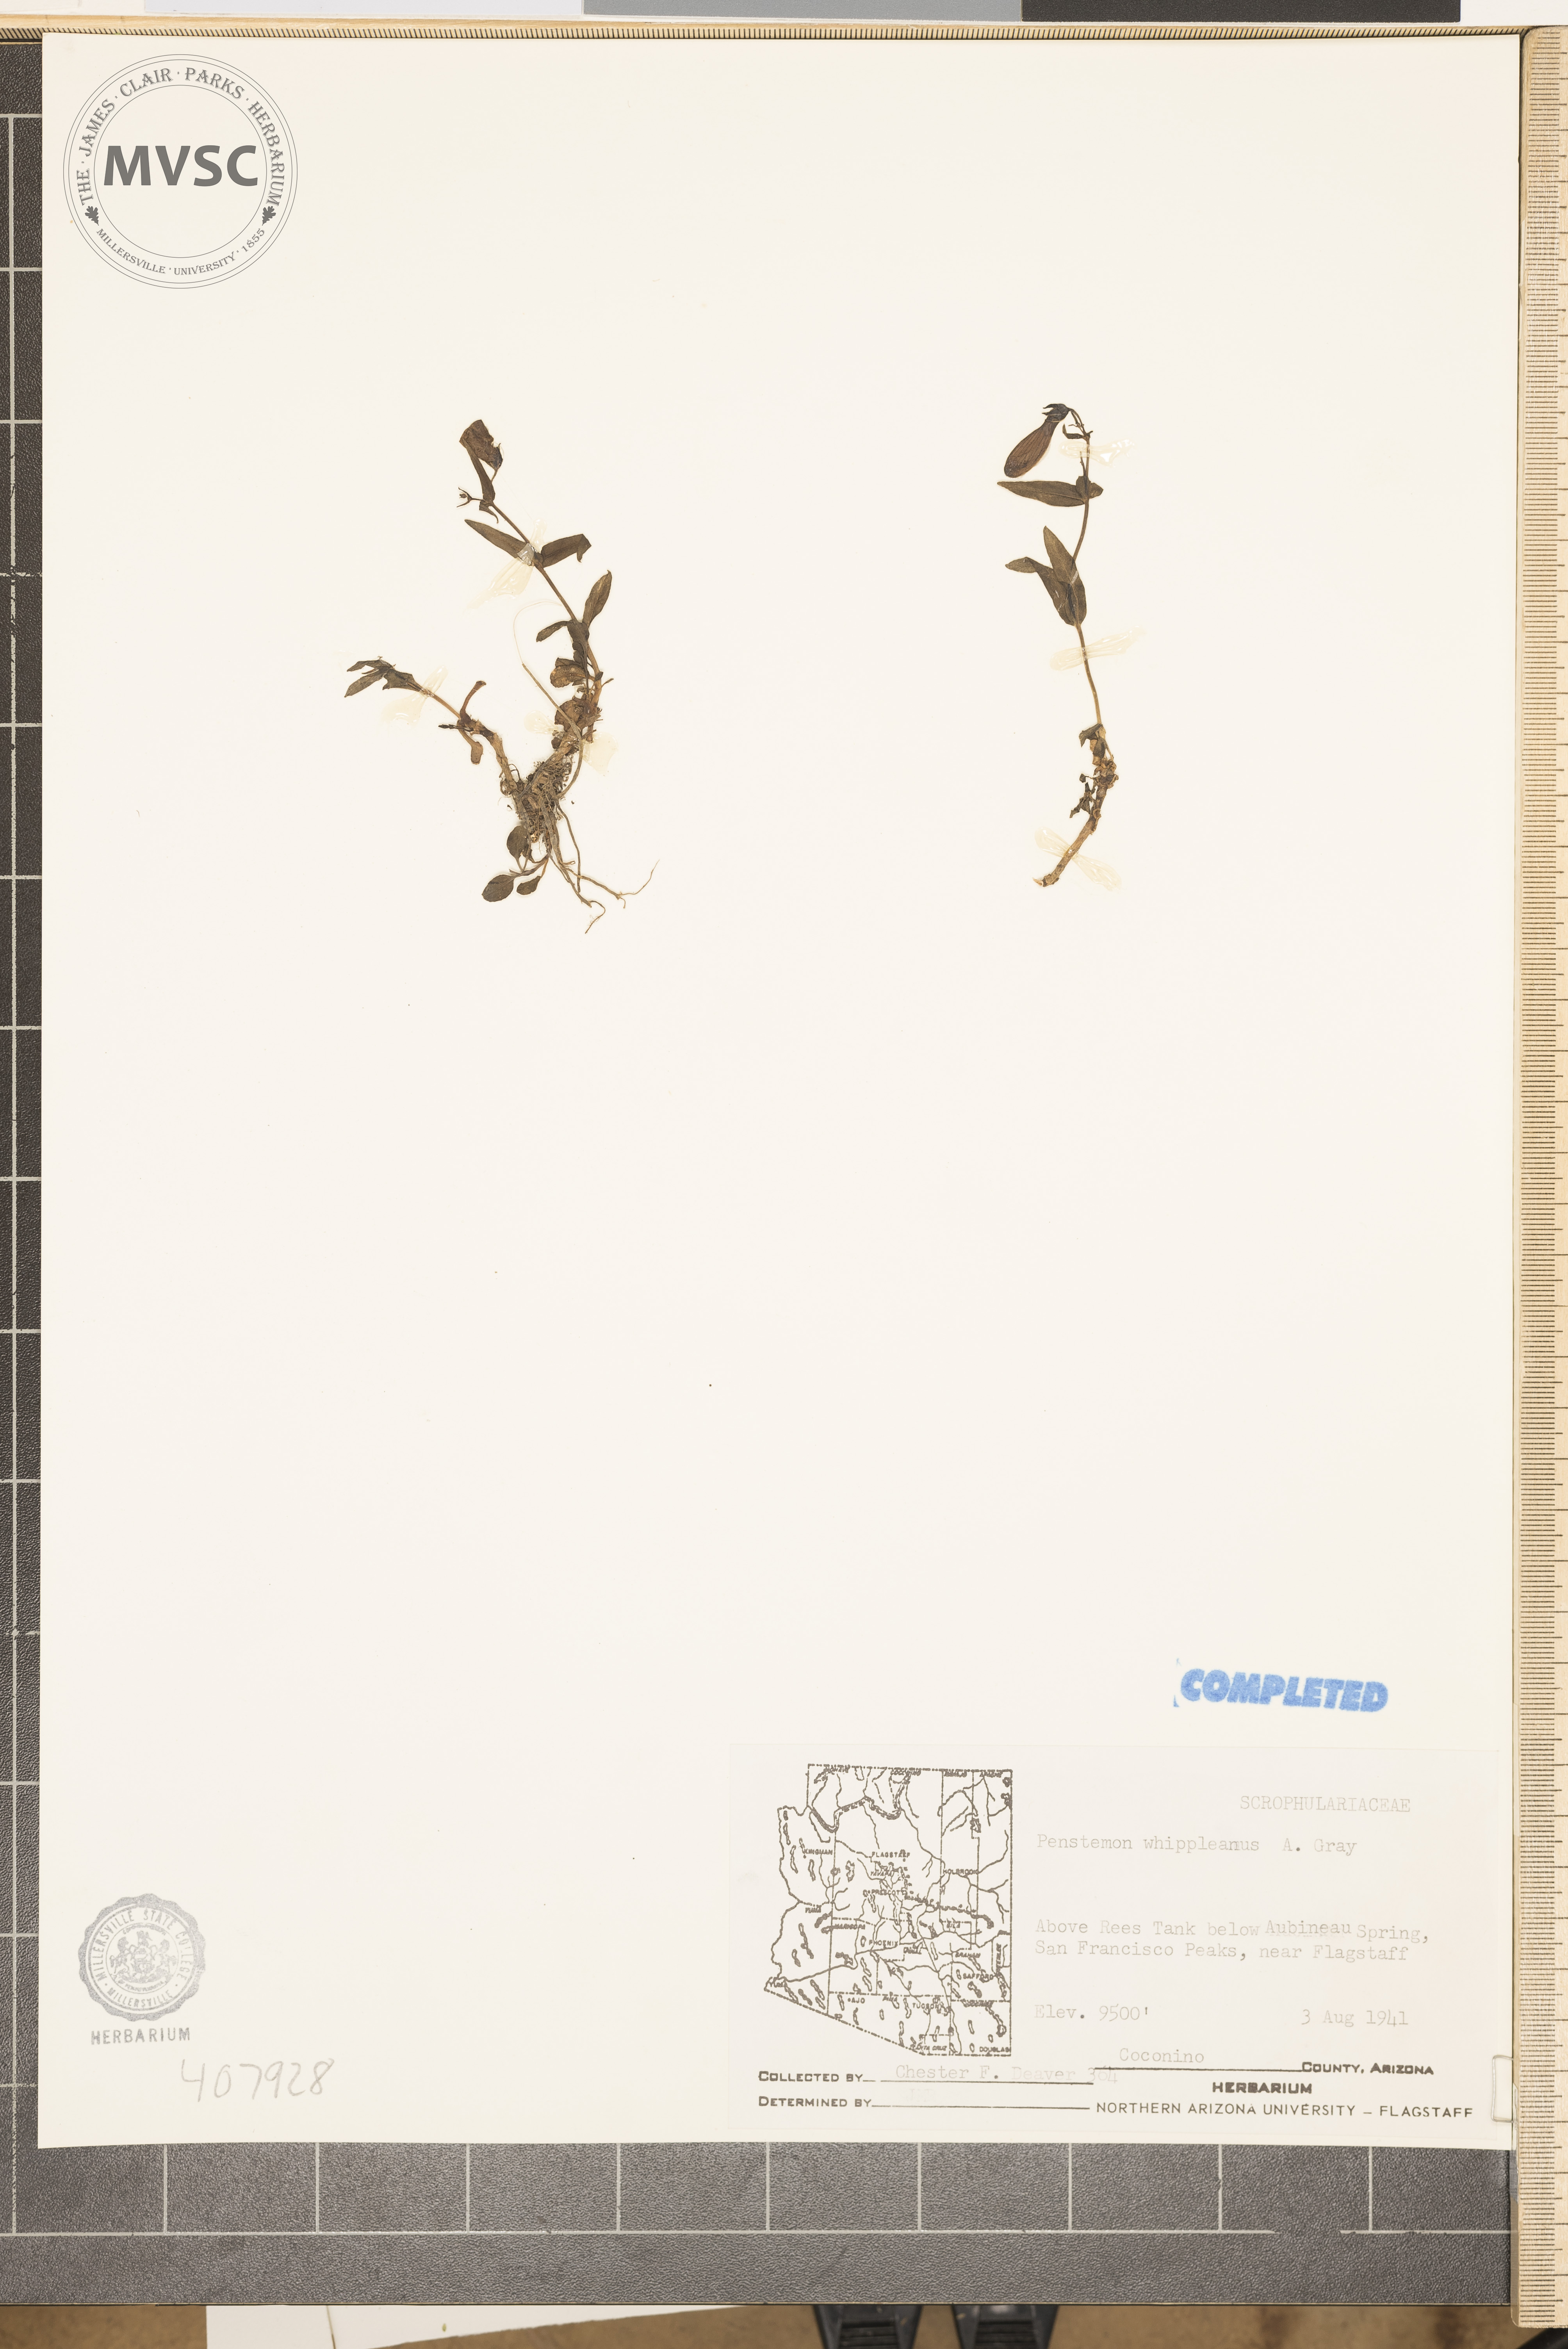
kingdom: Plantae
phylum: Tracheophyta
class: Magnoliopsida
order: Lamiales
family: Plantaginaceae
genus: Penstemon
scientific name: Penstemon whippleanus
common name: Whipple's penstemon
